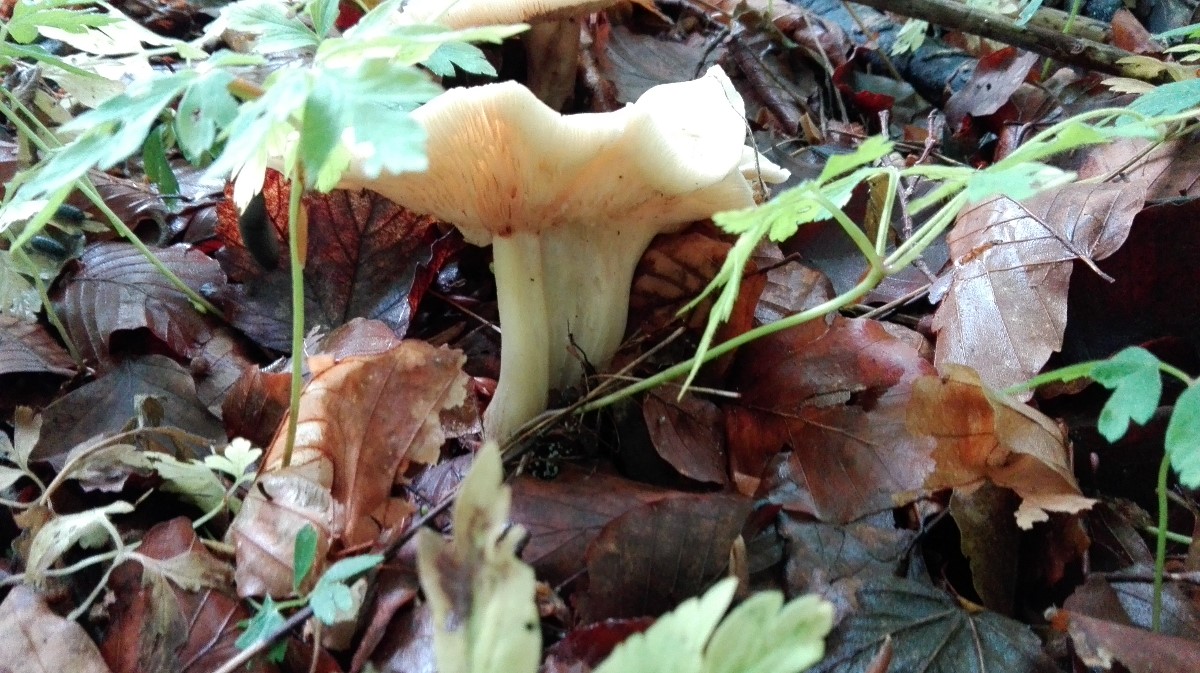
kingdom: Fungi
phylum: Basidiomycota
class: Agaricomycetes
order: Agaricales
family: Lyophyllaceae
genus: Calocybe
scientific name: Calocybe gambosa
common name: vårmusseron
